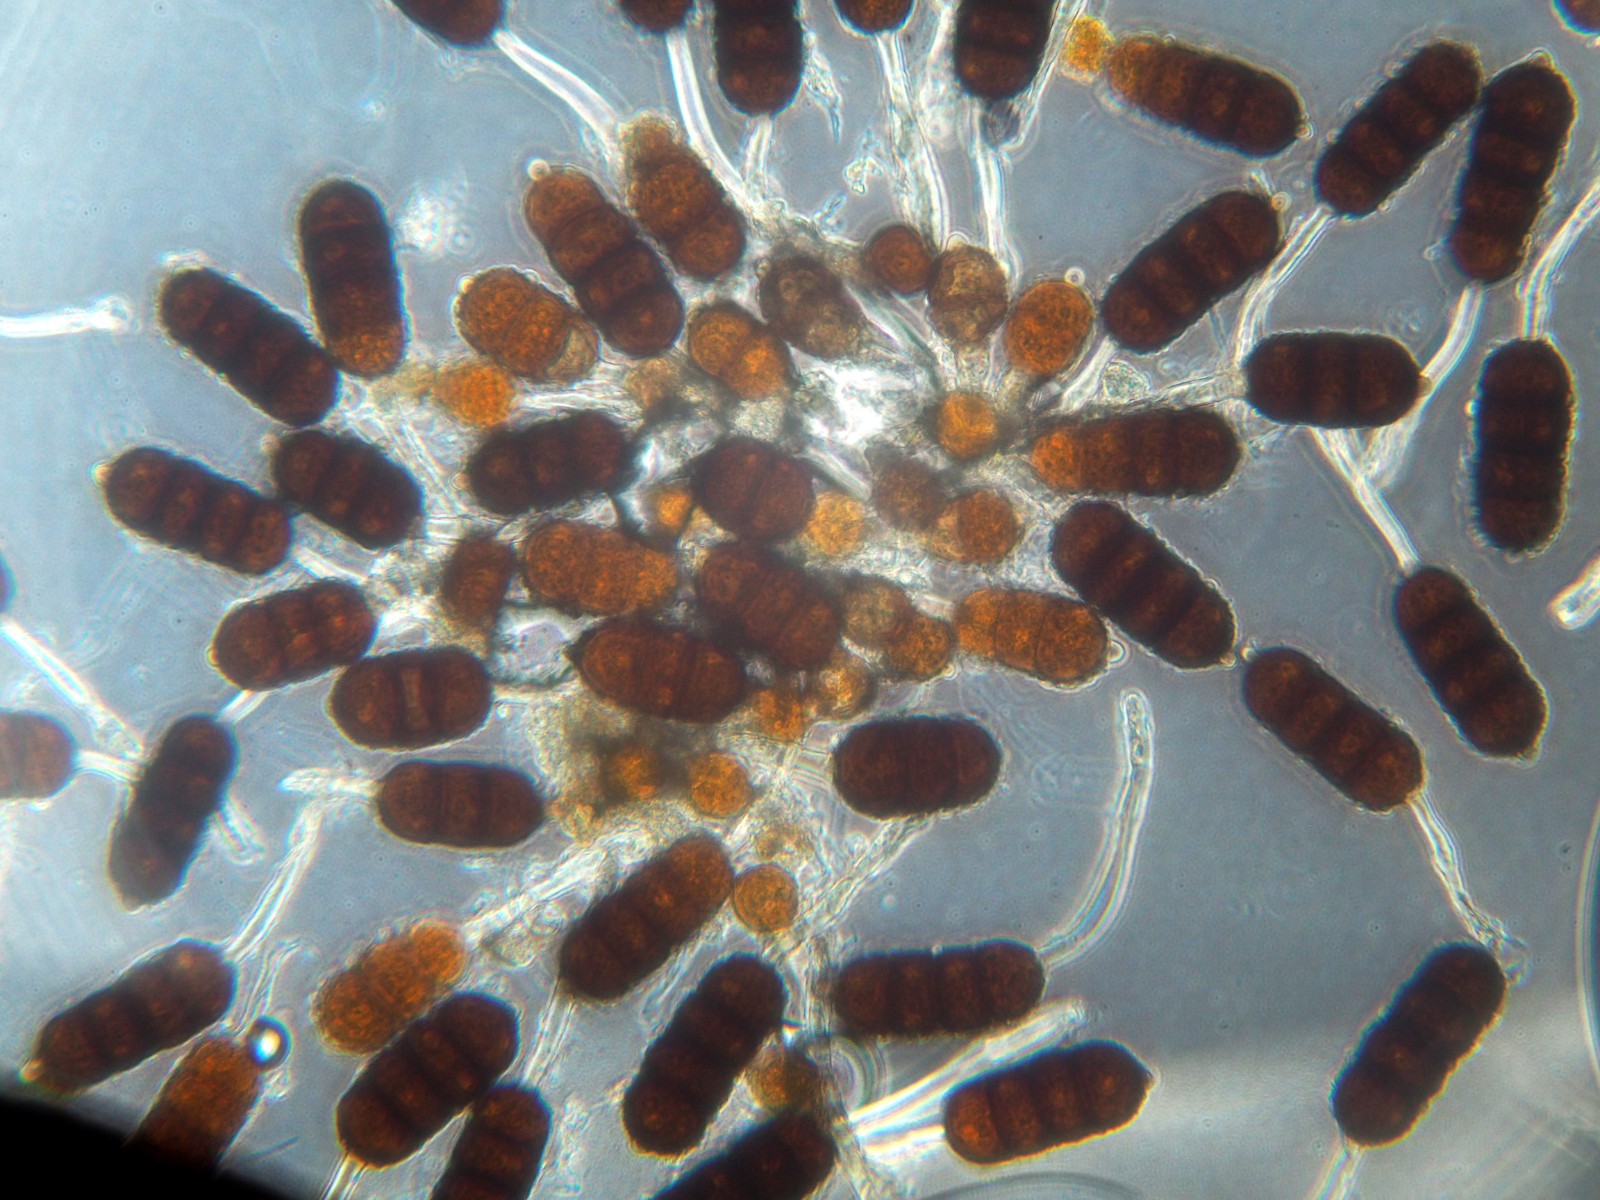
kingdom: Fungi
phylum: Basidiomycota
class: Pucciniomycetes
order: Pucciniales
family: Phragmidiaceae
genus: Phragmidium
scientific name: Phragmidium violaceum
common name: violet flercellerust
